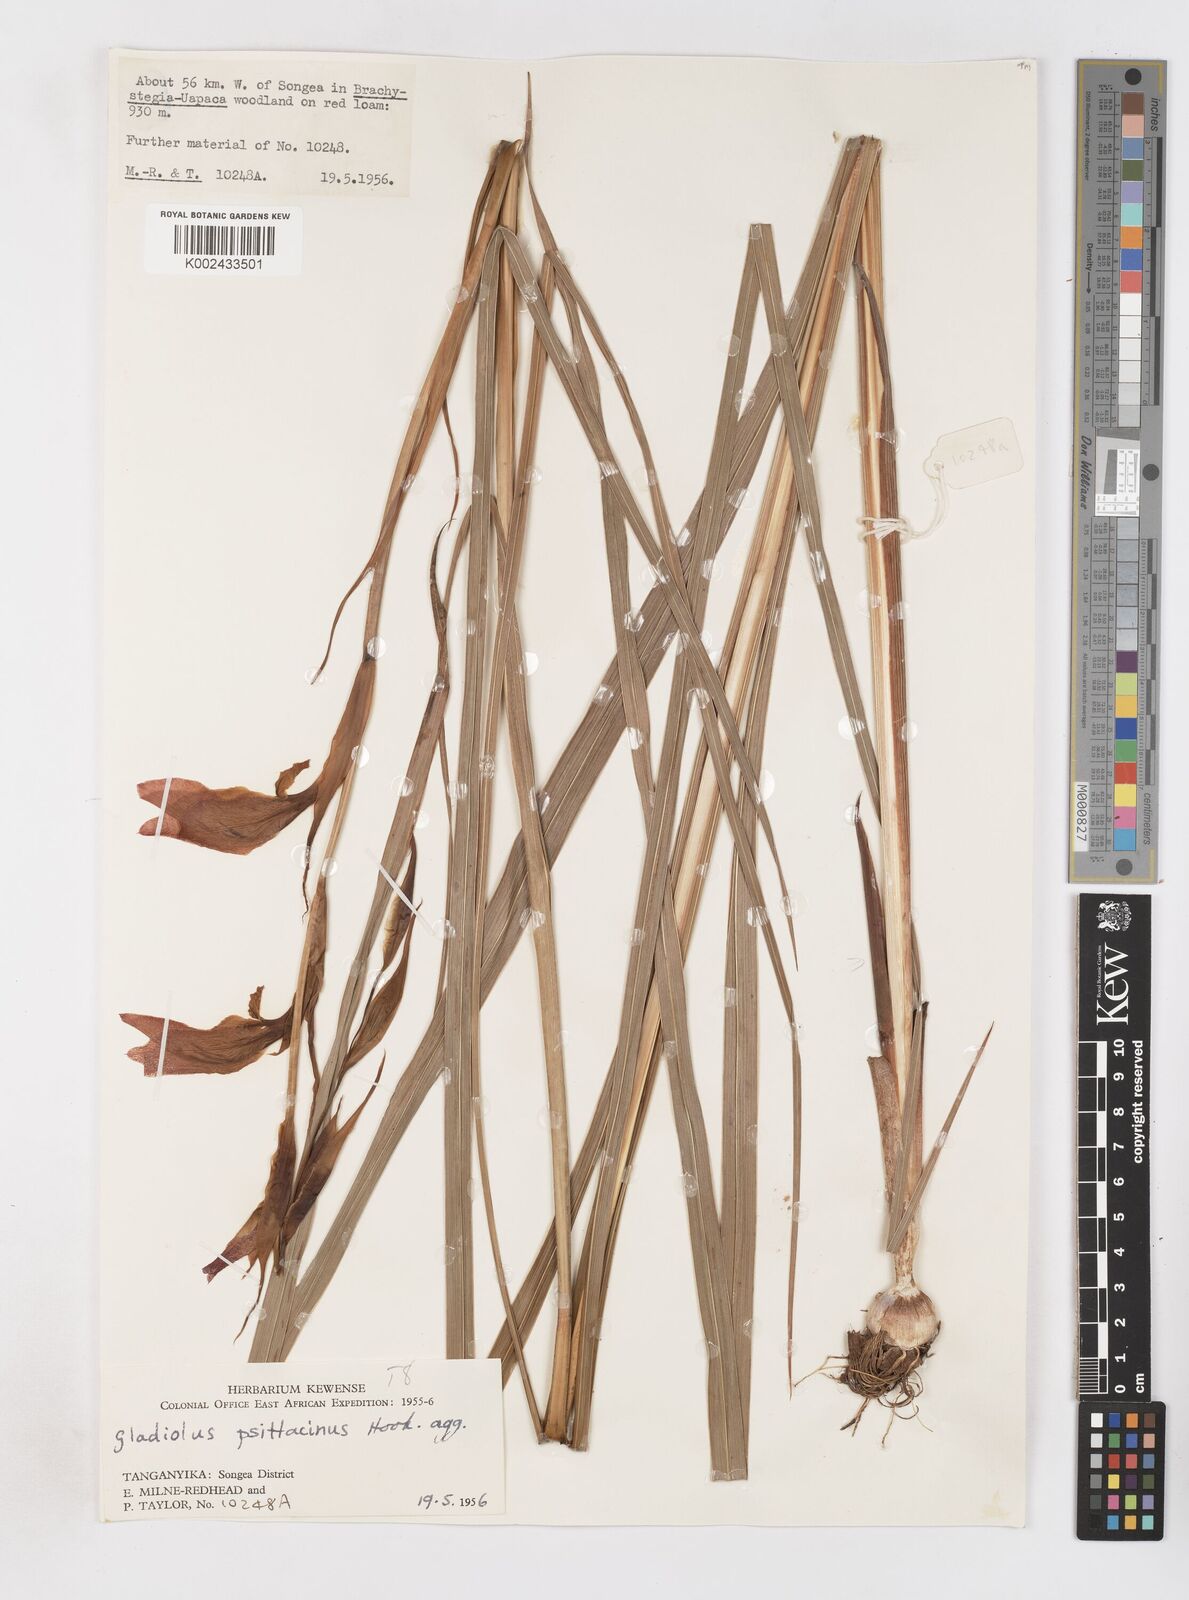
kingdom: Plantae
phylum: Tracheophyta
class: Liliopsida
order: Asparagales
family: Iridaceae
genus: Gladiolus
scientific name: Gladiolus dalenii
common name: Cornflag
